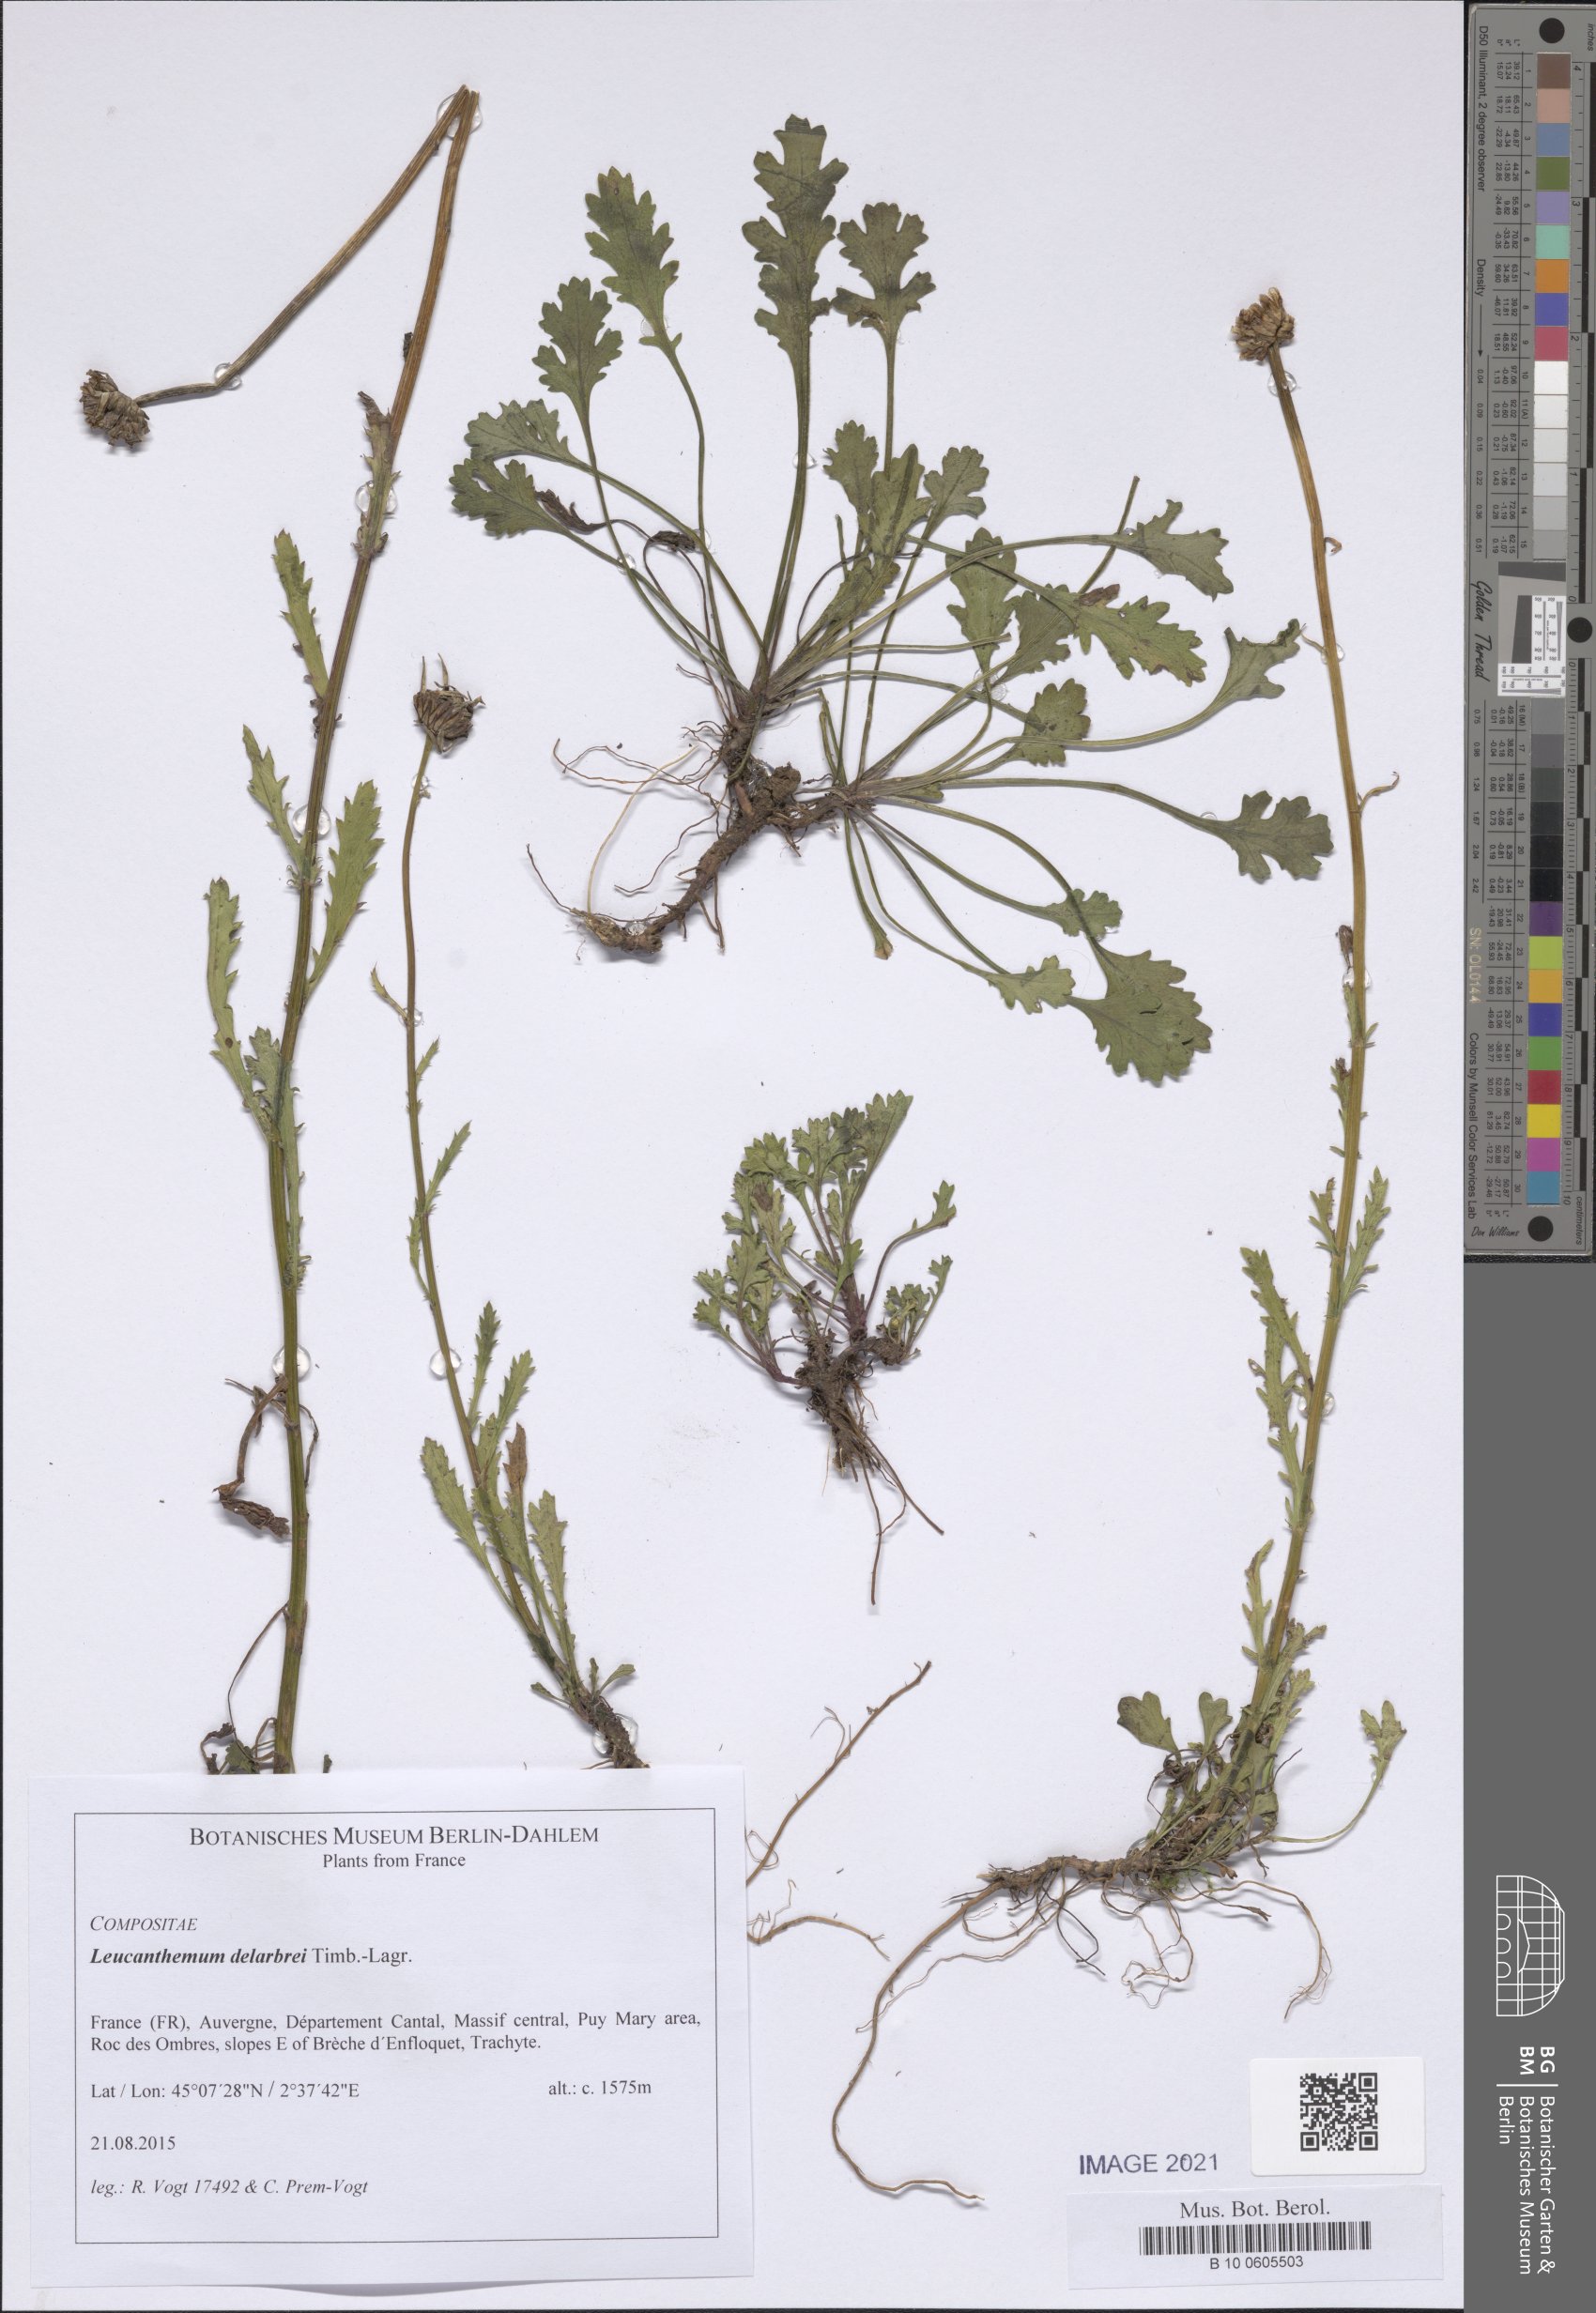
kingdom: Plantae
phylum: Tracheophyta
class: Magnoliopsida
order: Asterales
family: Asteraceae
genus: Leucanthemum
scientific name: Leucanthemum delarbrei
